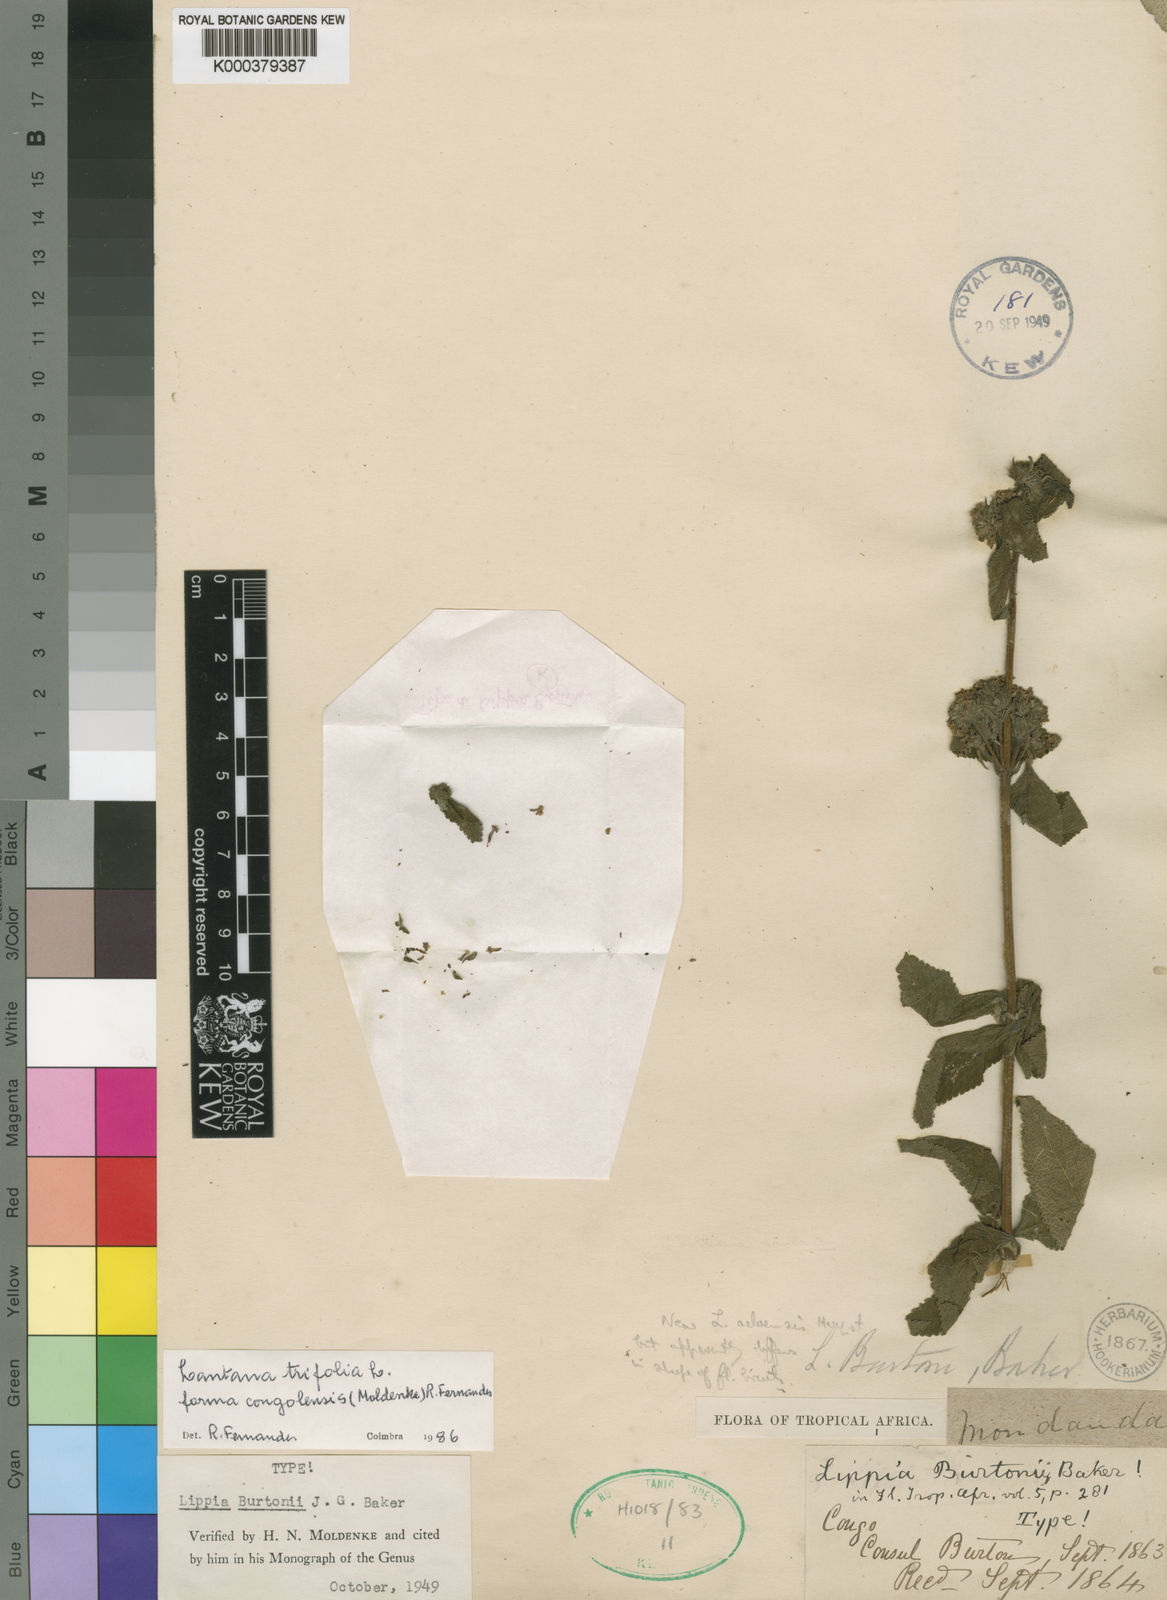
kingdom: Plantae
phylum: Tracheophyta
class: Magnoliopsida
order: Lamiales
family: Verbenaceae
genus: Lantana
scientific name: Lantana viburnoides
